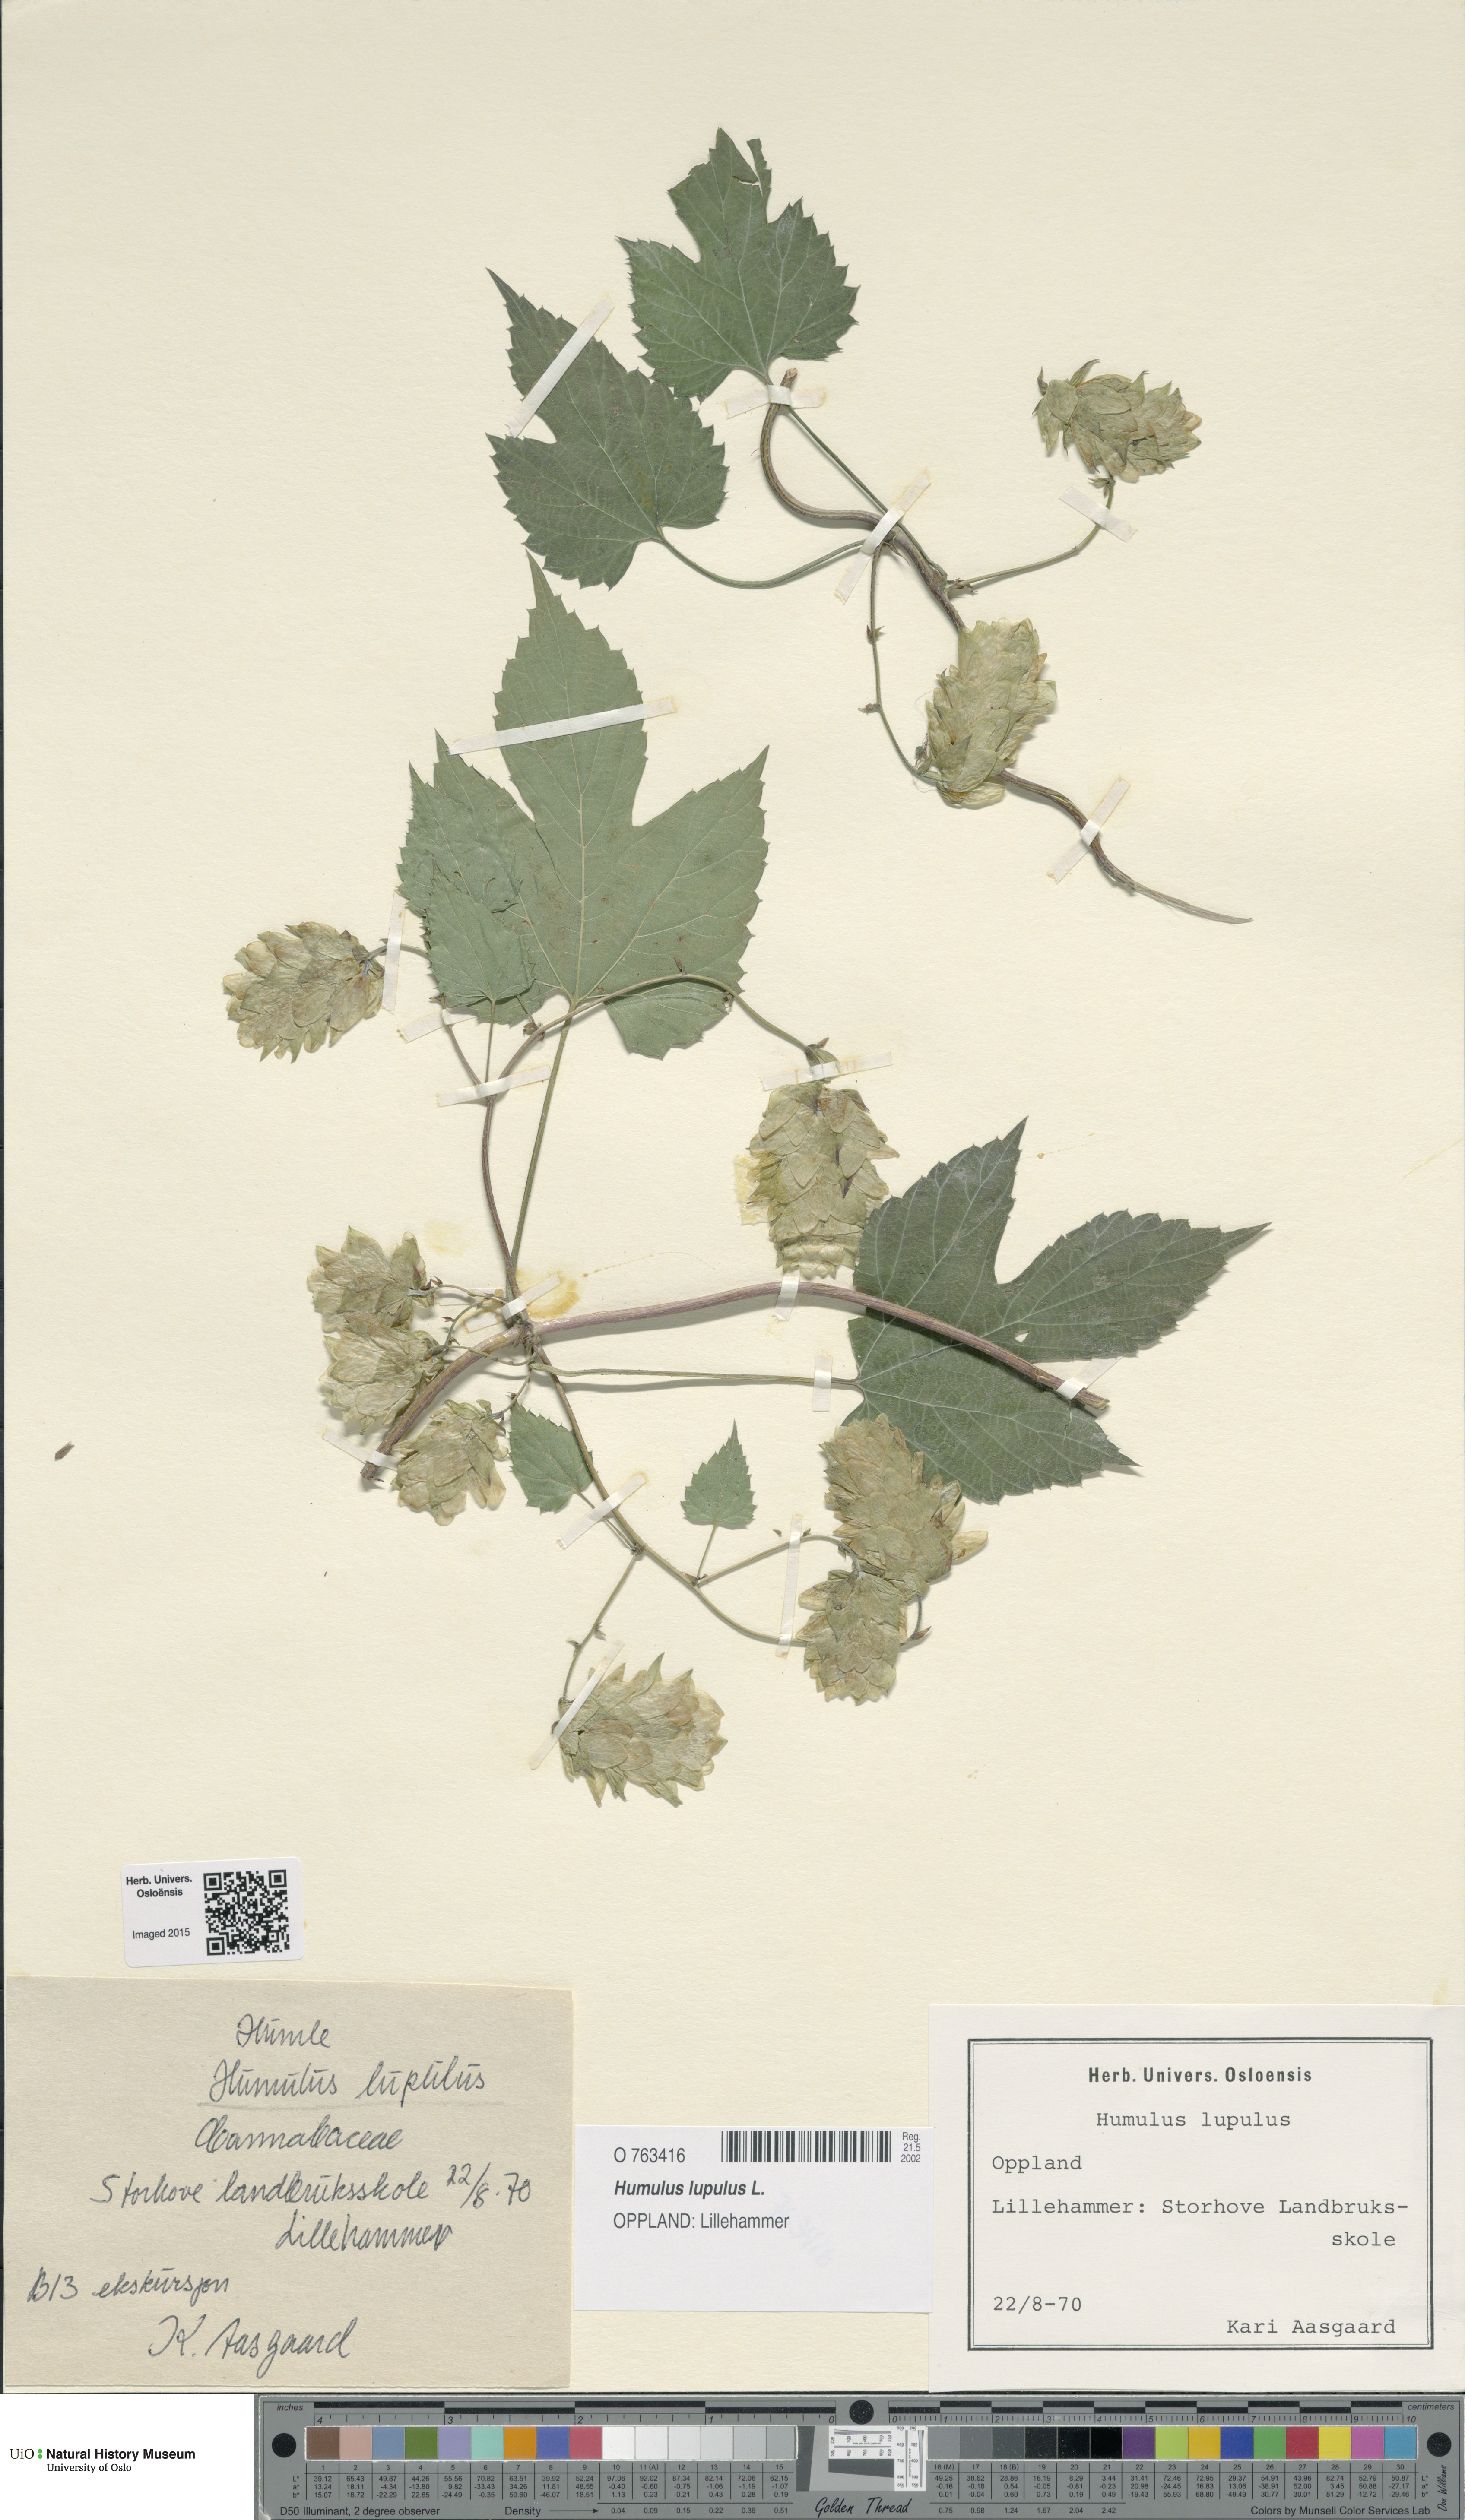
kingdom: Plantae
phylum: Tracheophyta
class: Magnoliopsida
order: Rosales
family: Cannabaceae
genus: Humulus
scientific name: Humulus lupulus
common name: Hop
